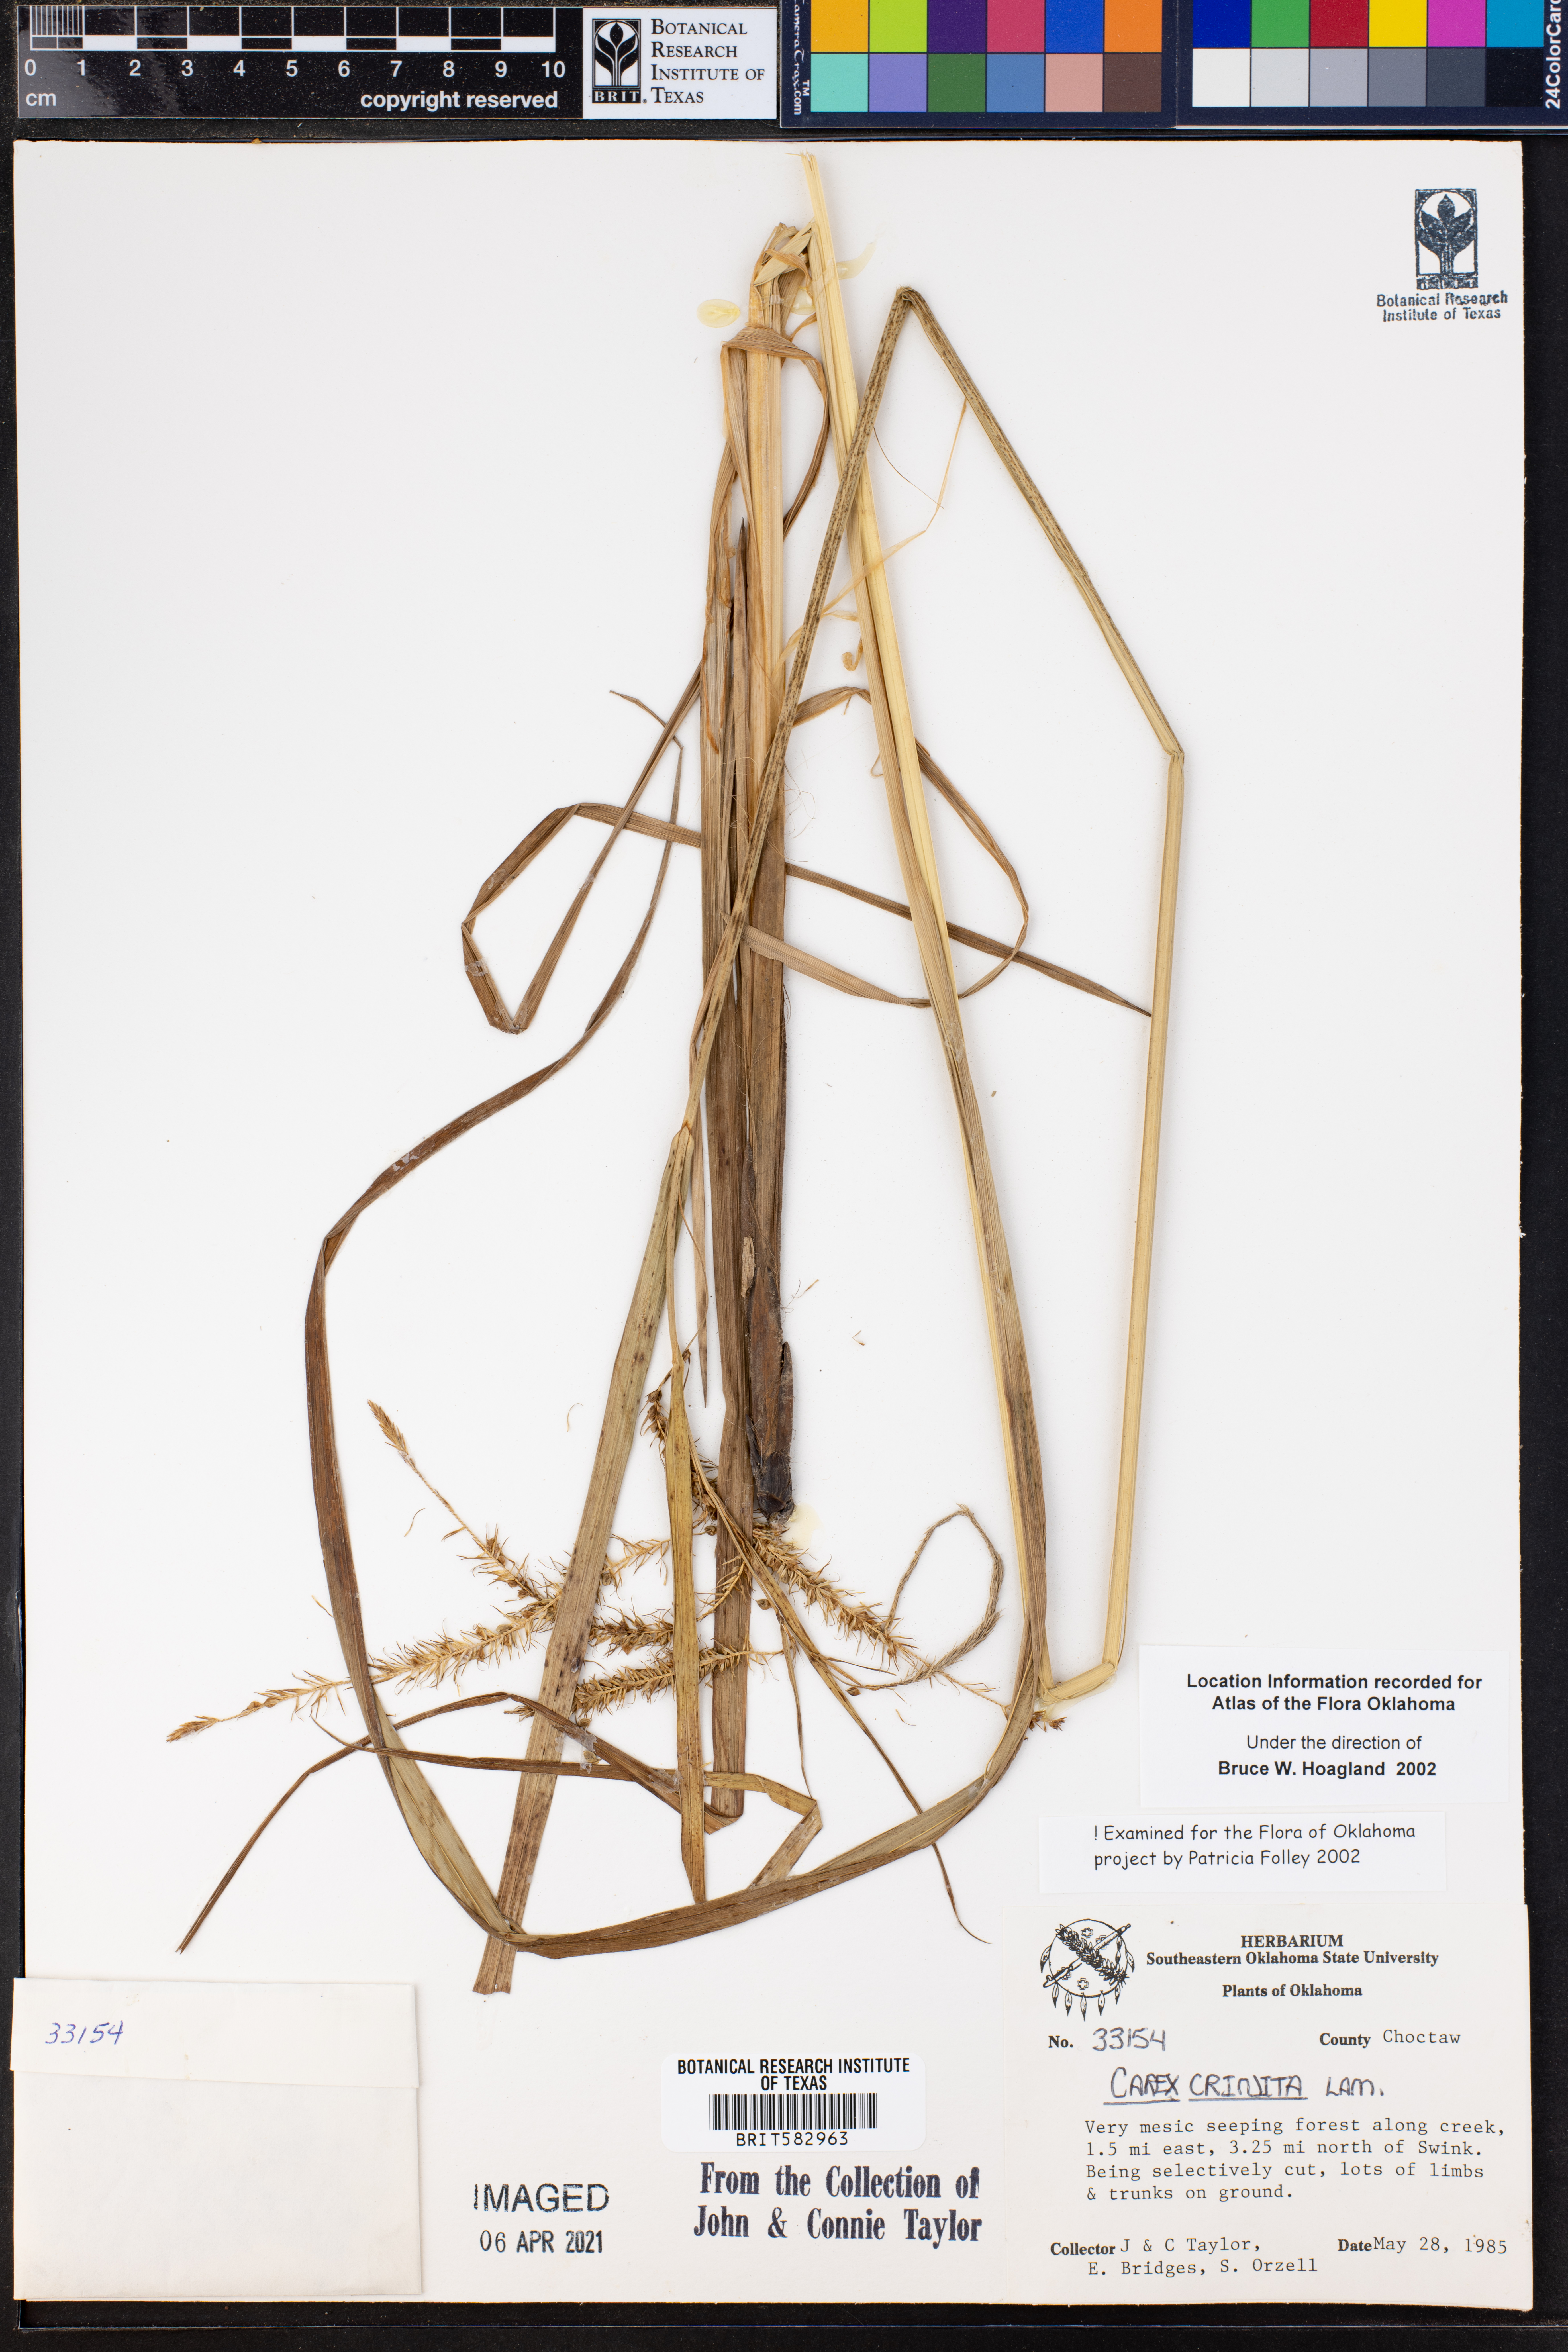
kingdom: Plantae
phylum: Tracheophyta
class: Liliopsida
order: Poales
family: Cyperaceae
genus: Carex
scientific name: Carex crinita
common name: Fringed sedge
